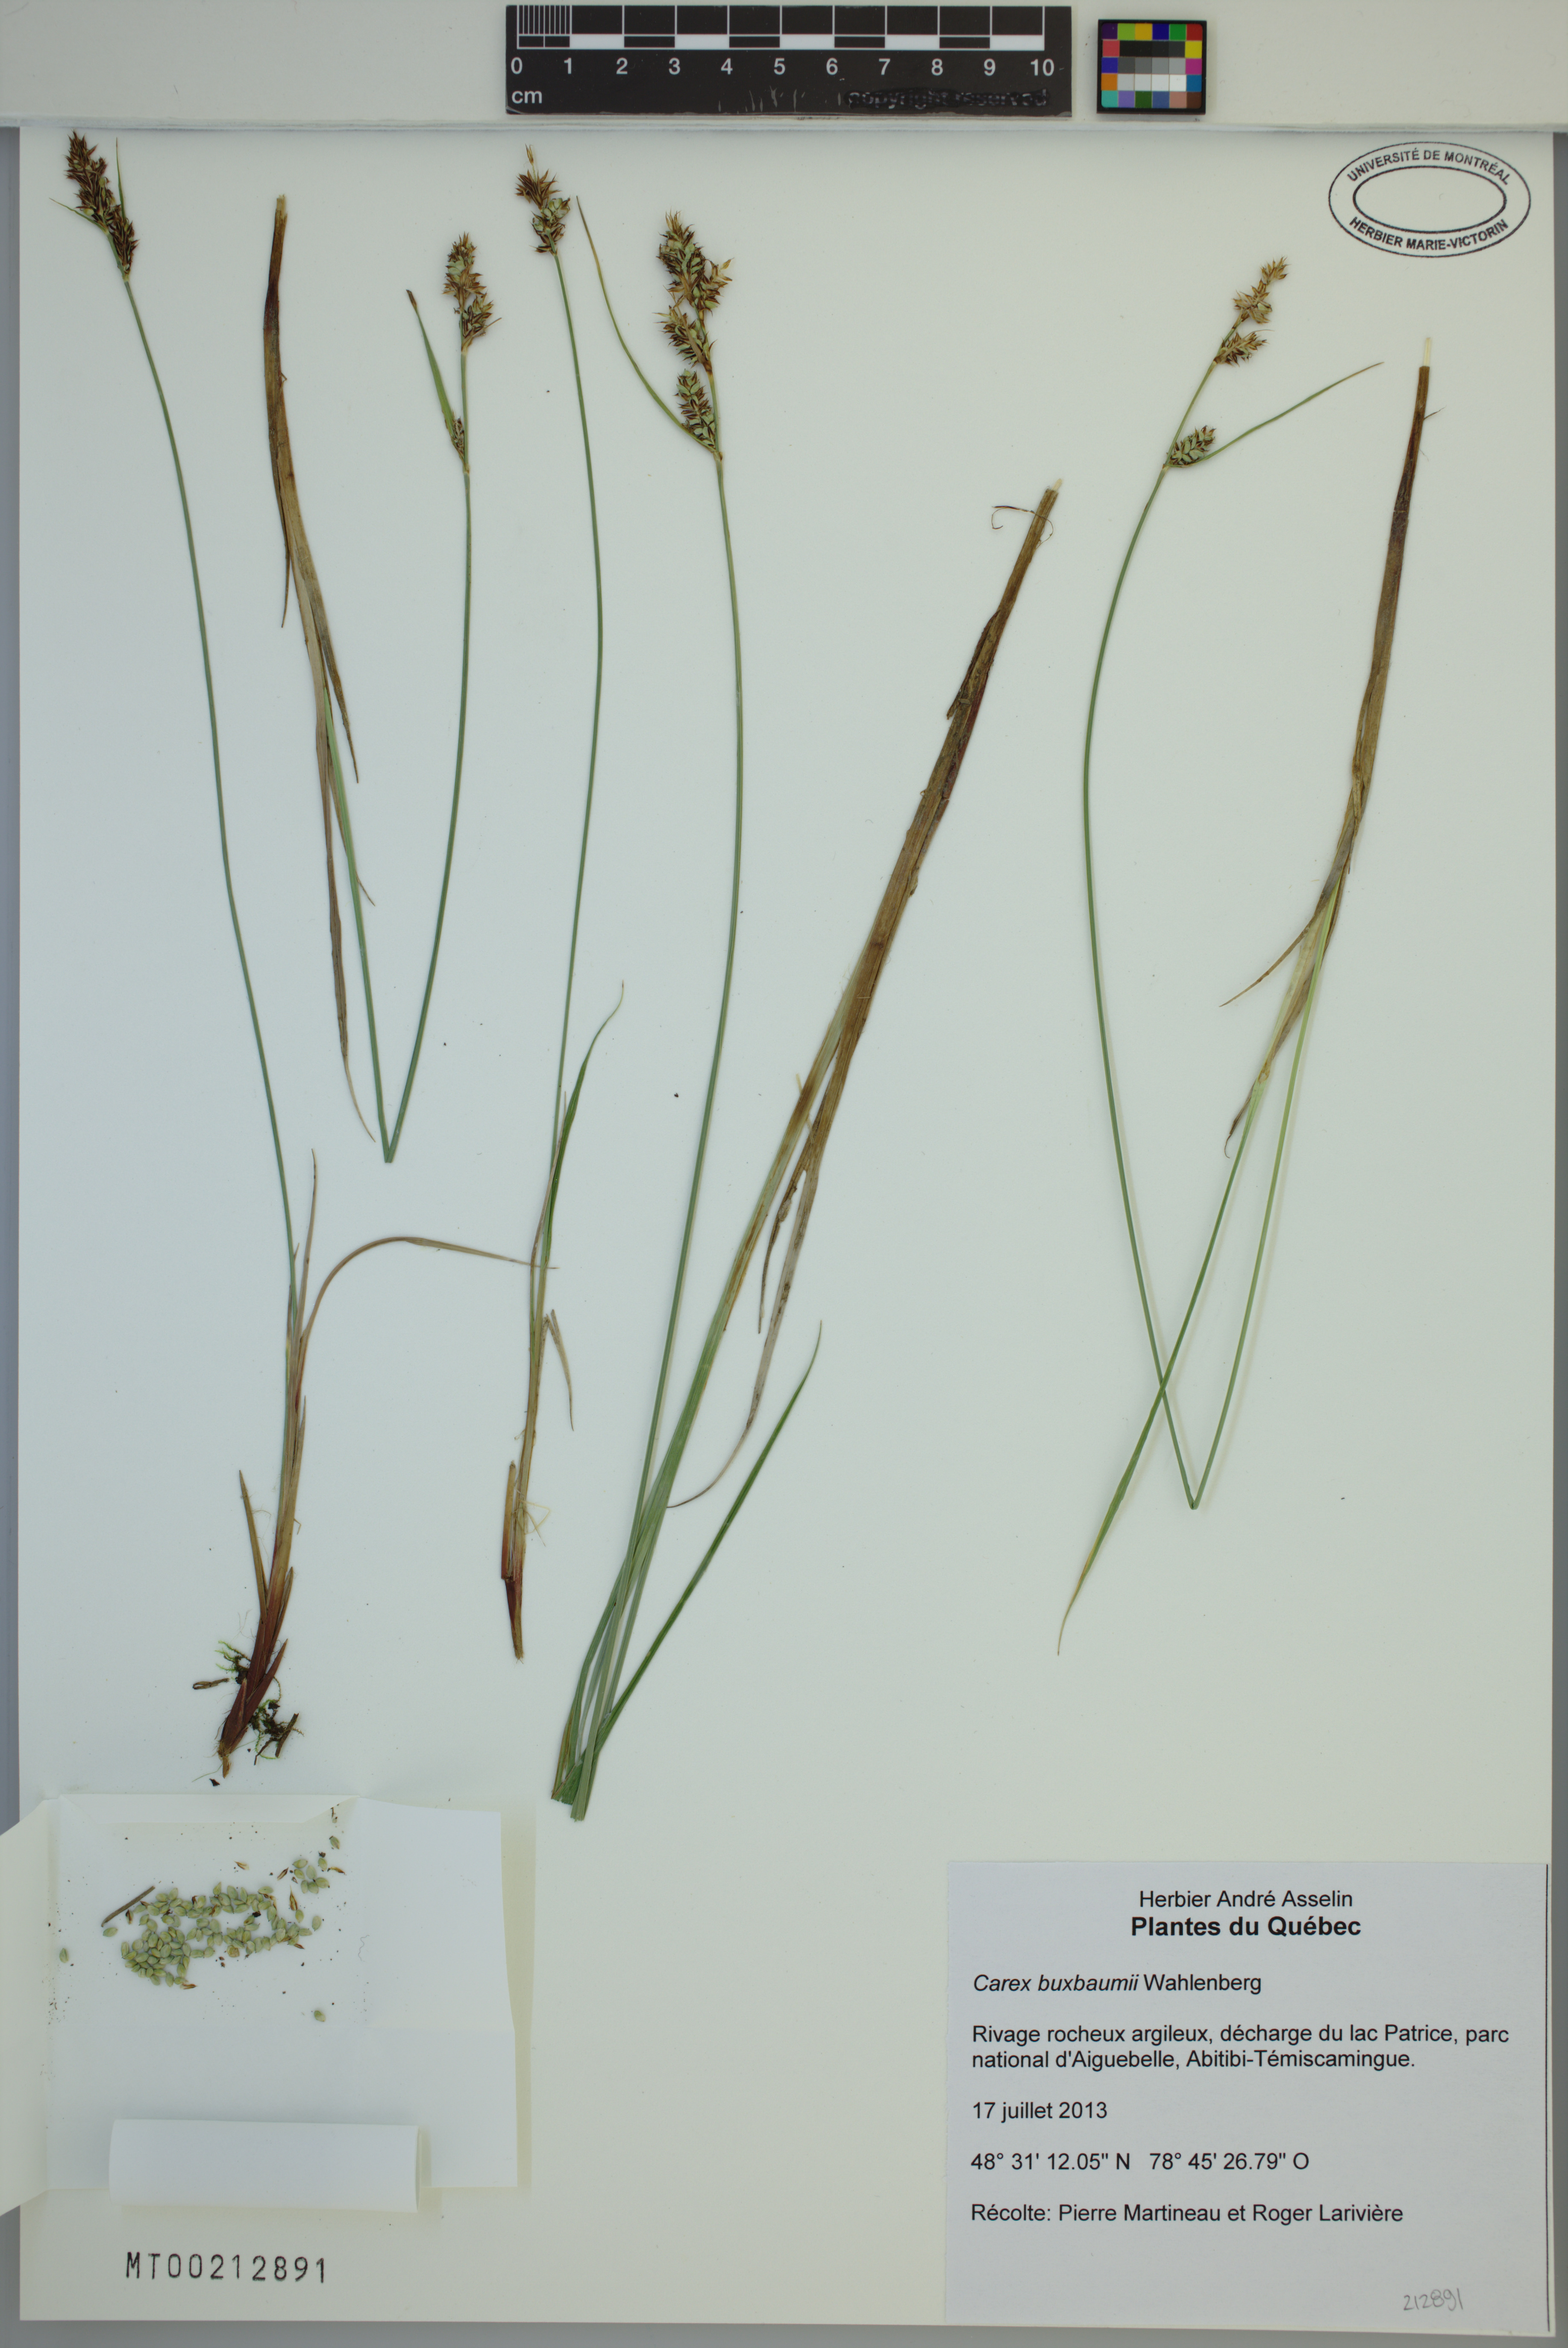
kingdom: Plantae
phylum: Tracheophyta
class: Liliopsida
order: Poales
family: Cyperaceae
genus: Carex
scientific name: Carex buxbaumii
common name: Club sedge
